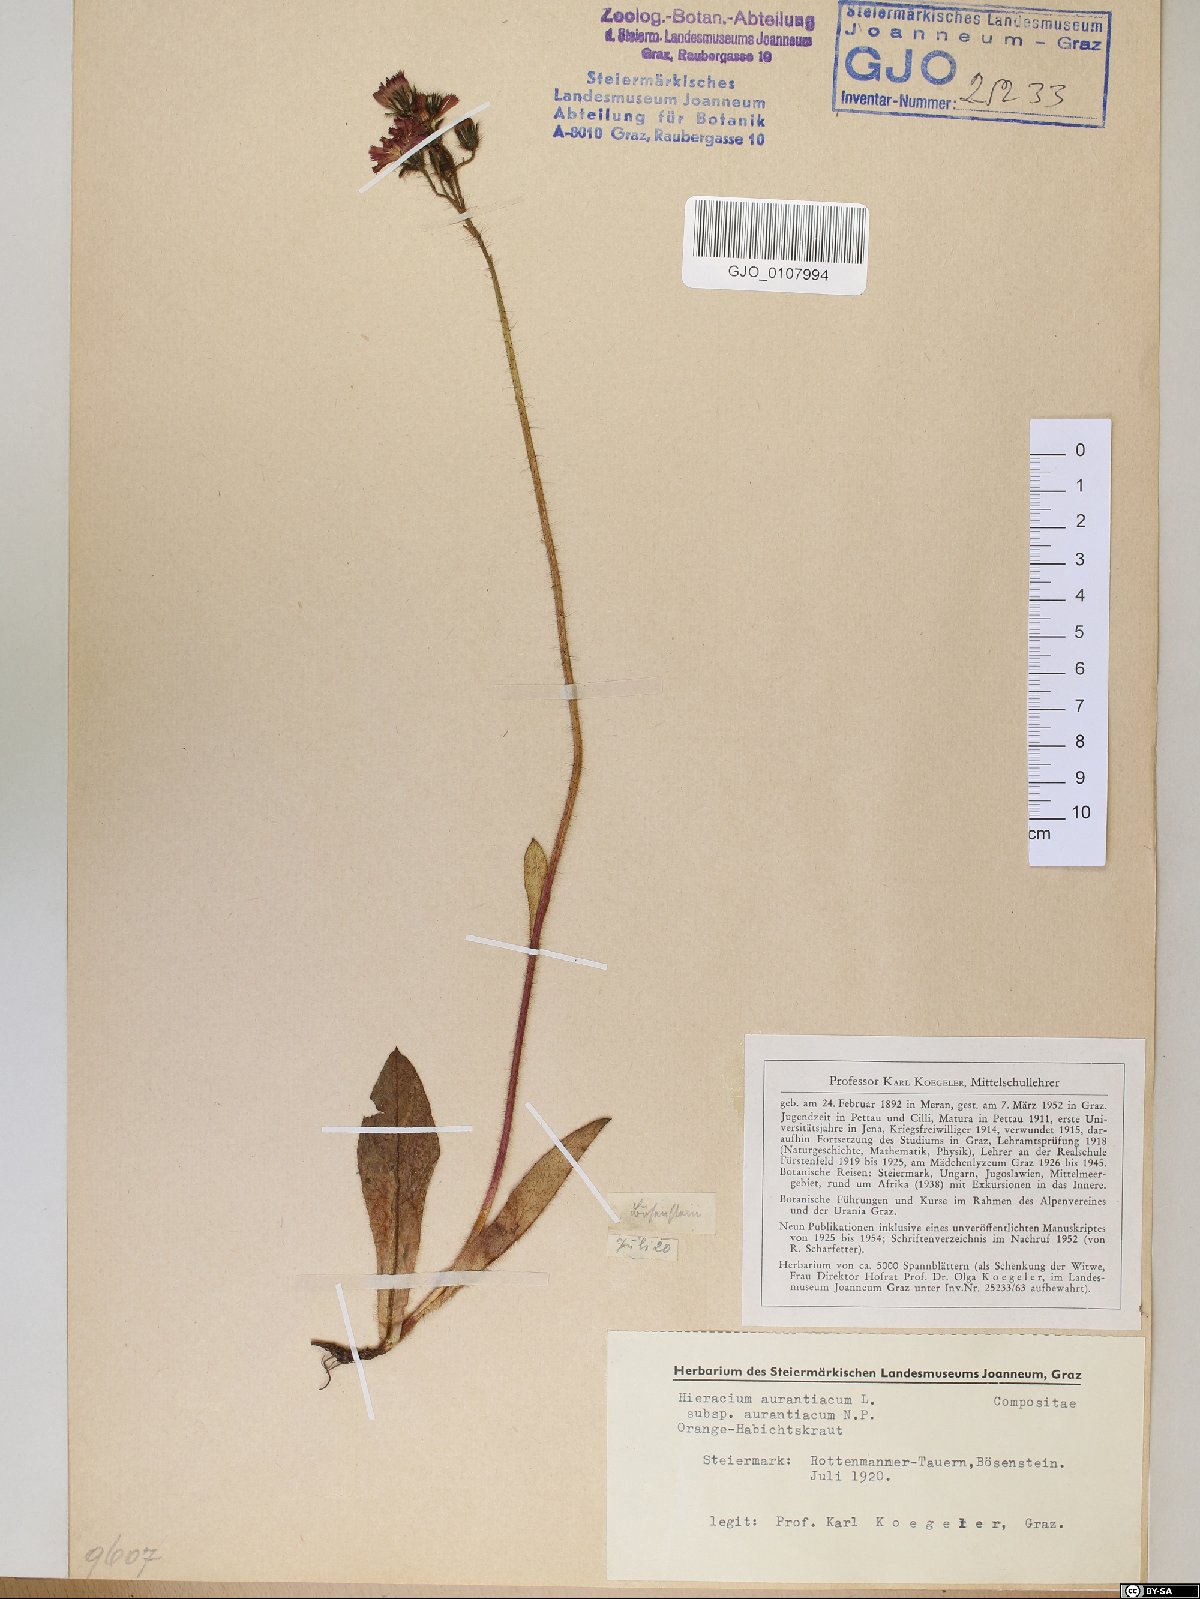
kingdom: Plantae
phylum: Tracheophyta
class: Magnoliopsida
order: Asterales
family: Asteraceae
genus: Pilosella
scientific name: Pilosella aurantiaca
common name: Fox-and-cubs
